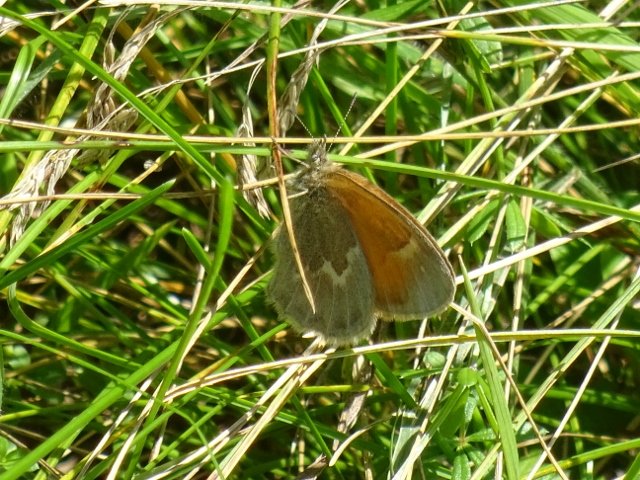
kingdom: Animalia
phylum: Arthropoda
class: Insecta
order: Lepidoptera
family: Nymphalidae
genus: Coenonympha
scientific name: Coenonympha tullia
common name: Large Heath
